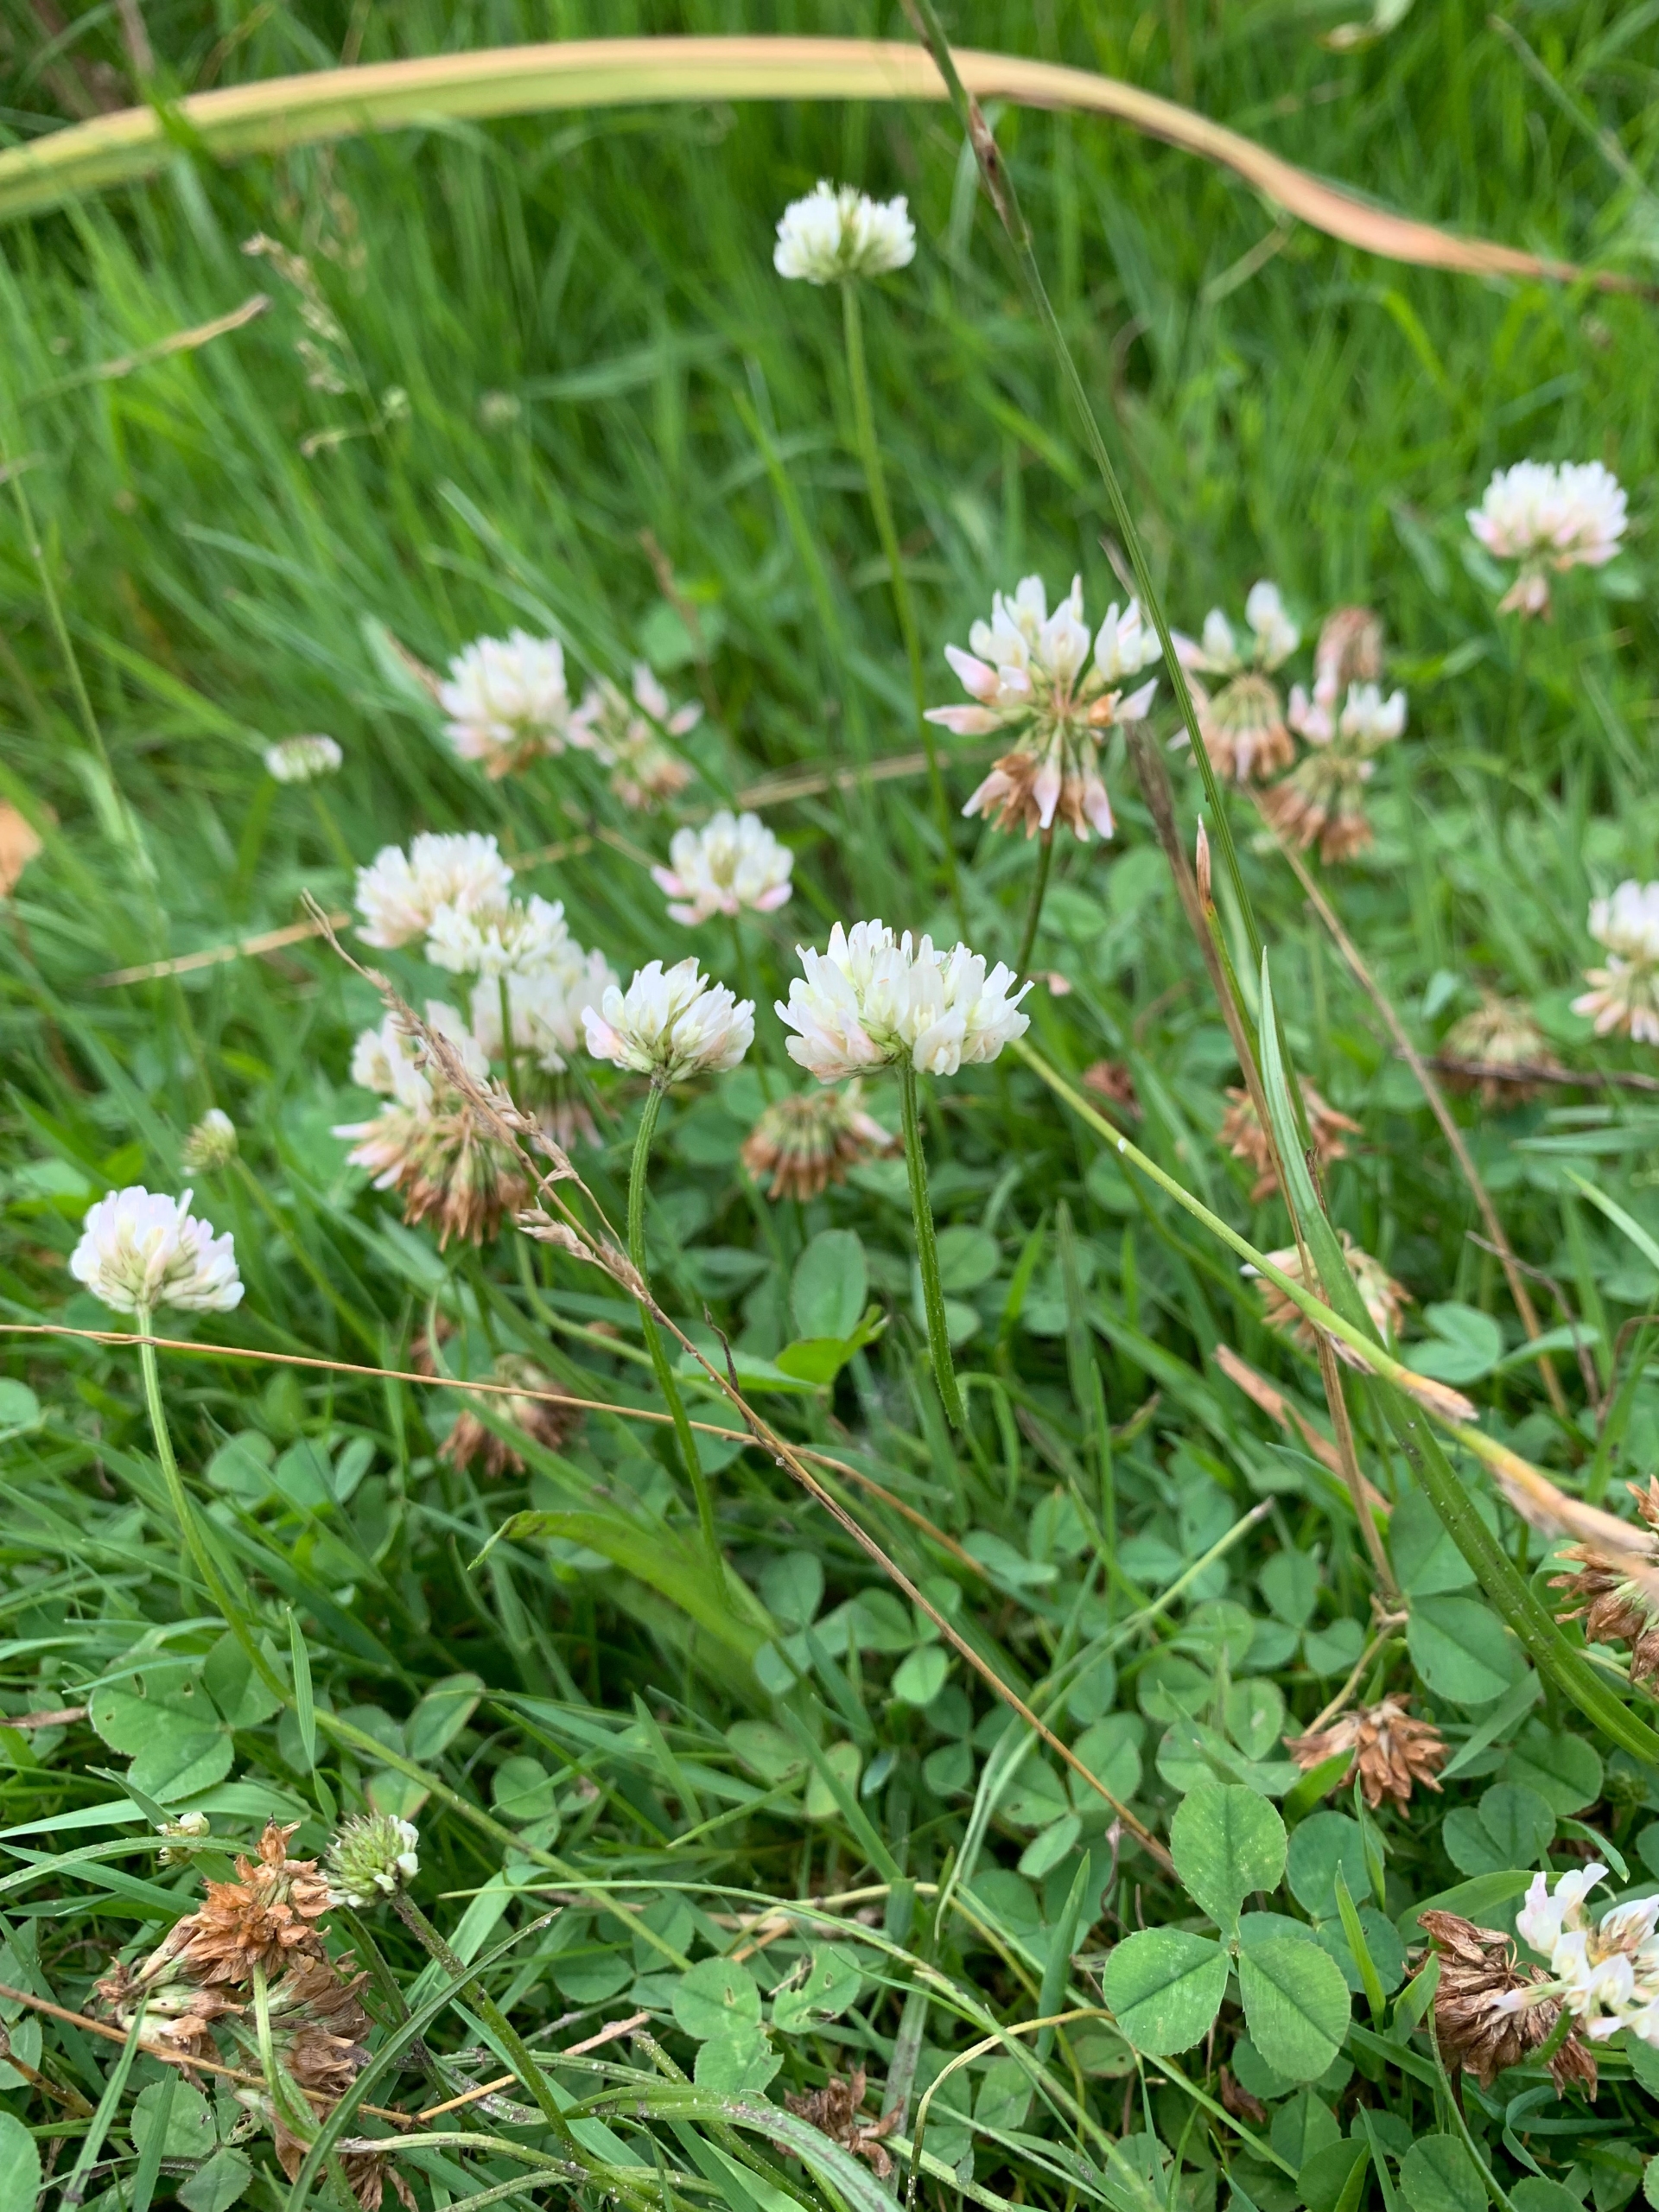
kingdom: Plantae
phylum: Tracheophyta
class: Magnoliopsida
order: Fabales
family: Fabaceae
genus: Trifolium
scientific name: Trifolium repens
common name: Hvid-kløver
